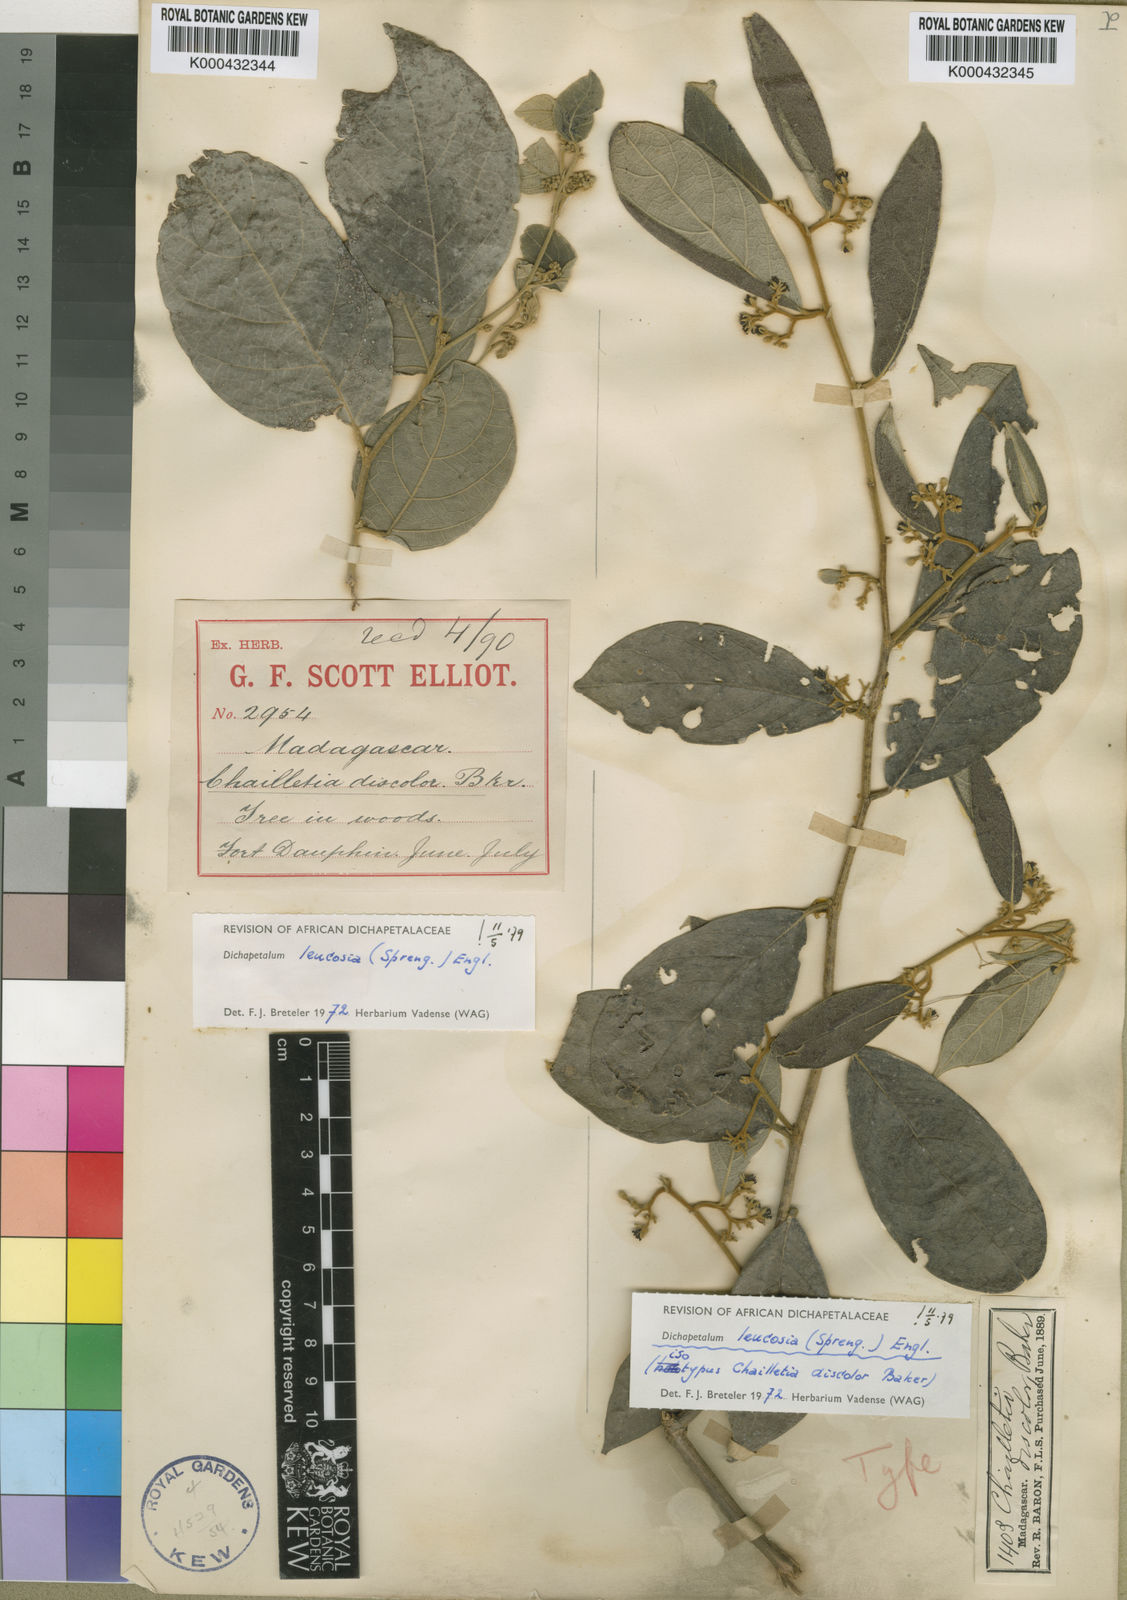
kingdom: Plantae
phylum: Tracheophyta
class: Magnoliopsida
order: Malpighiales
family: Dichapetalaceae
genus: Dichapetalum
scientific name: Dichapetalum leucosia
